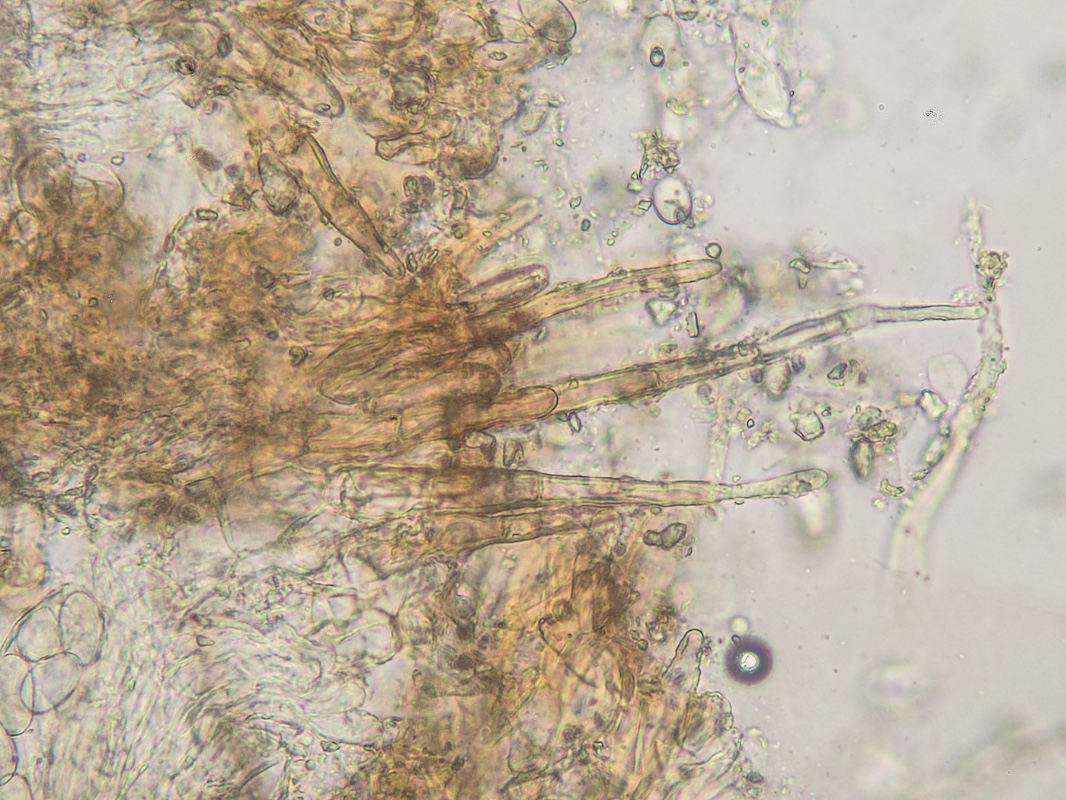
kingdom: Fungi
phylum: Ascomycota
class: Pezizomycetes
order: Pezizales
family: Pyronemataceae
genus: Tricharina
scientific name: Tricharina cretea
